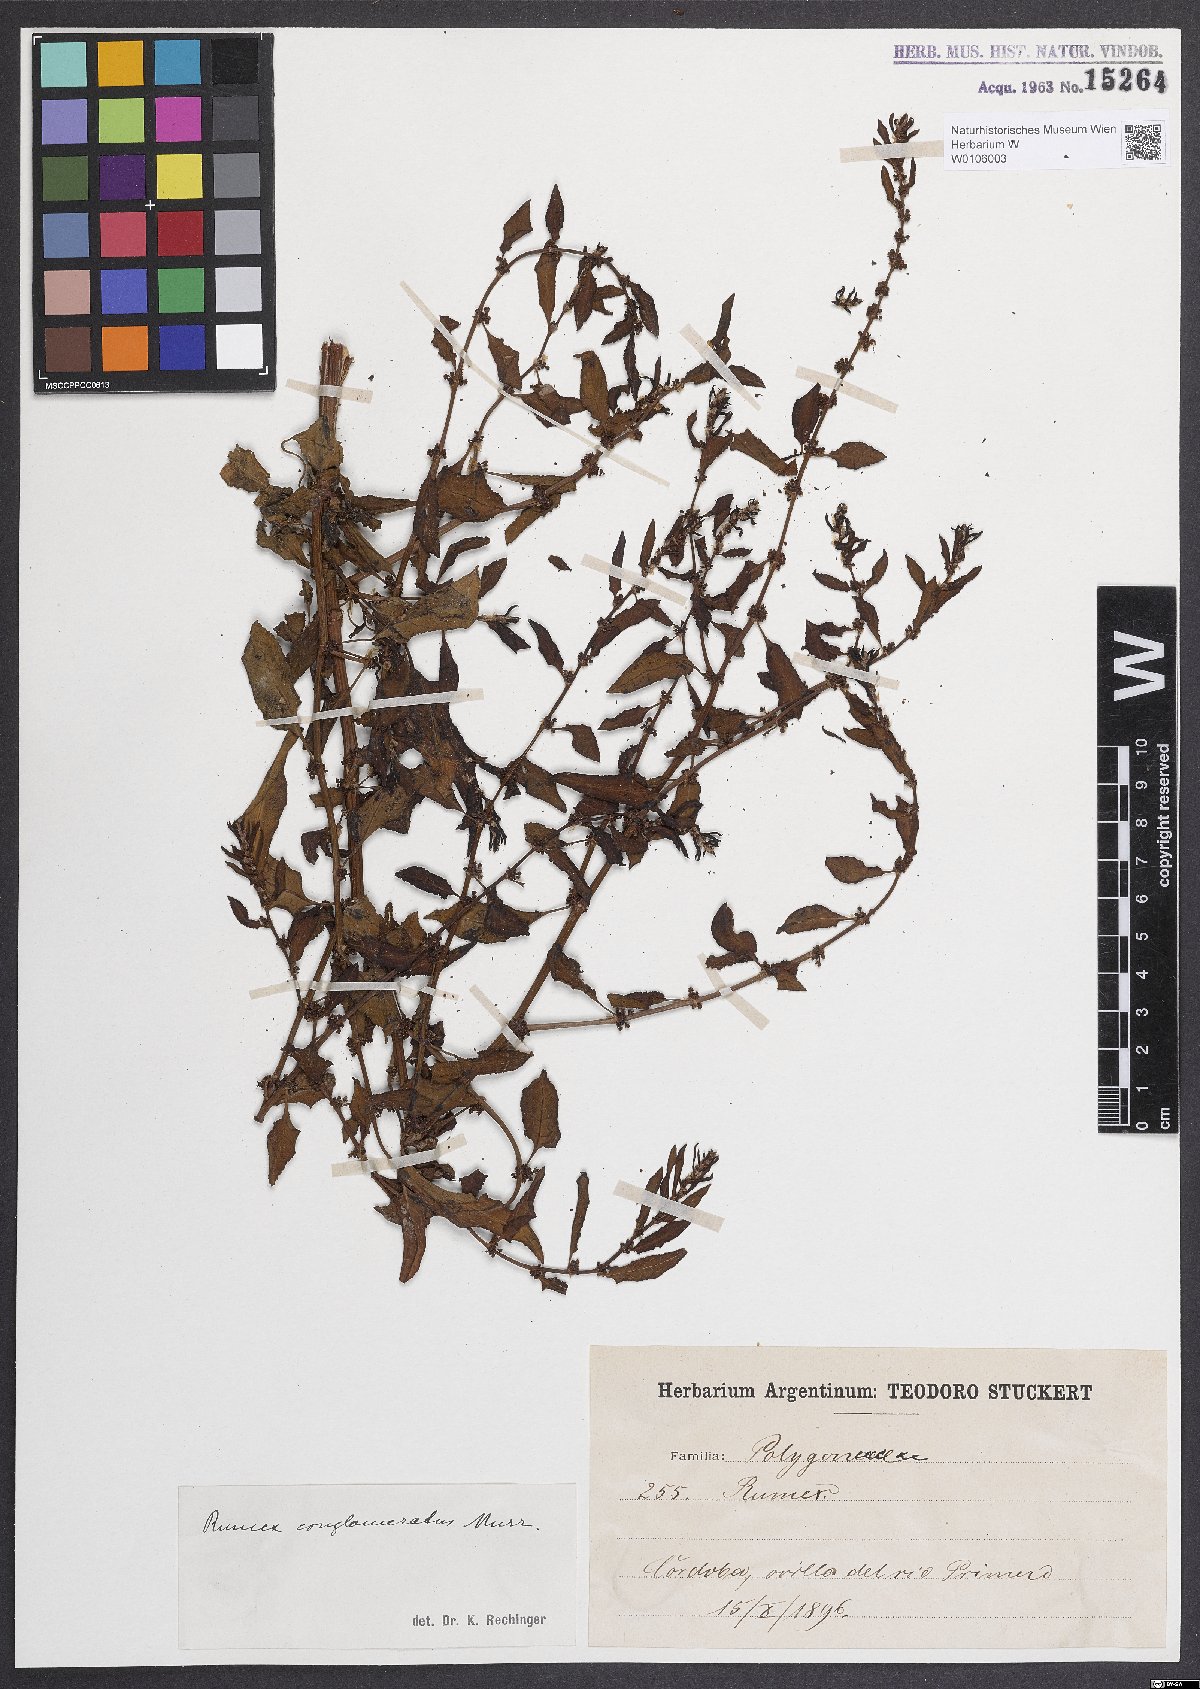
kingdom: Plantae
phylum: Tracheophyta
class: Magnoliopsida
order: Caryophyllales
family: Polygonaceae
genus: Rumex
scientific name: Rumex conglomeratus
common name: Clustered dock
